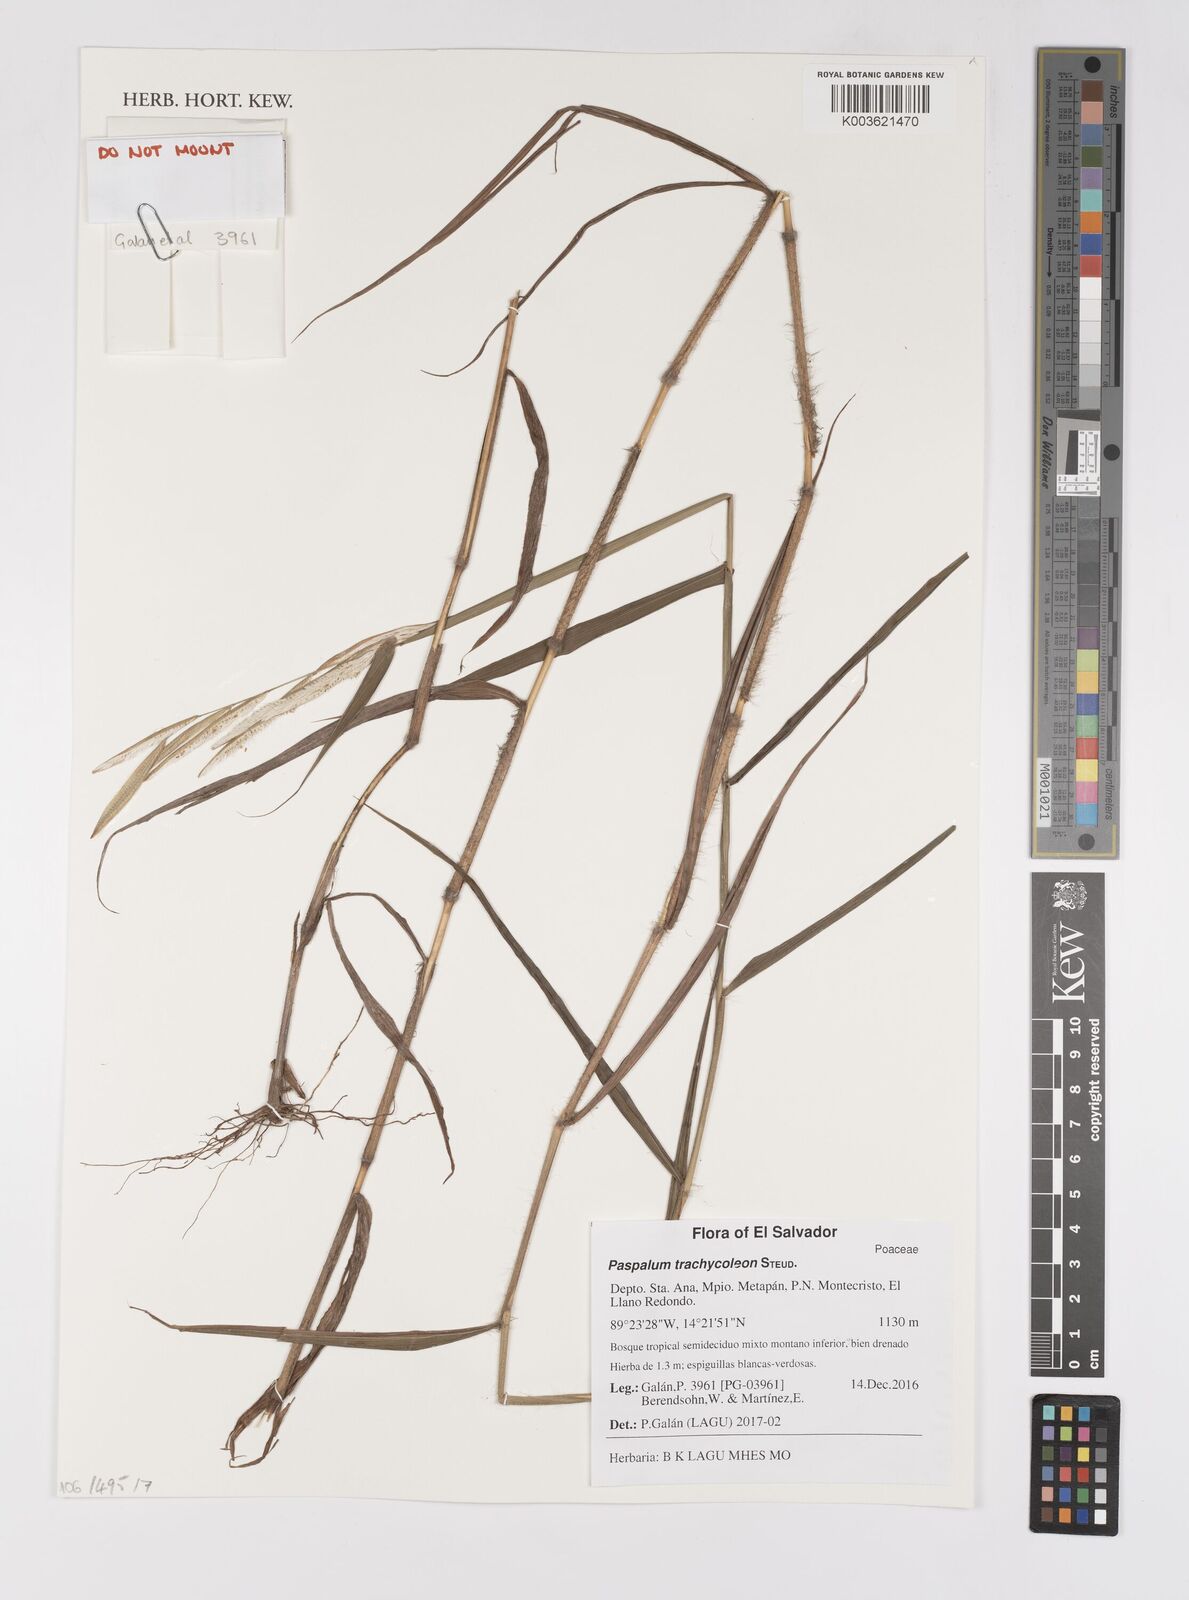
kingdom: Plantae
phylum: Tracheophyta
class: Liliopsida
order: Poales
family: Poaceae
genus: Paspalum
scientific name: Paspalum trachycoleon
